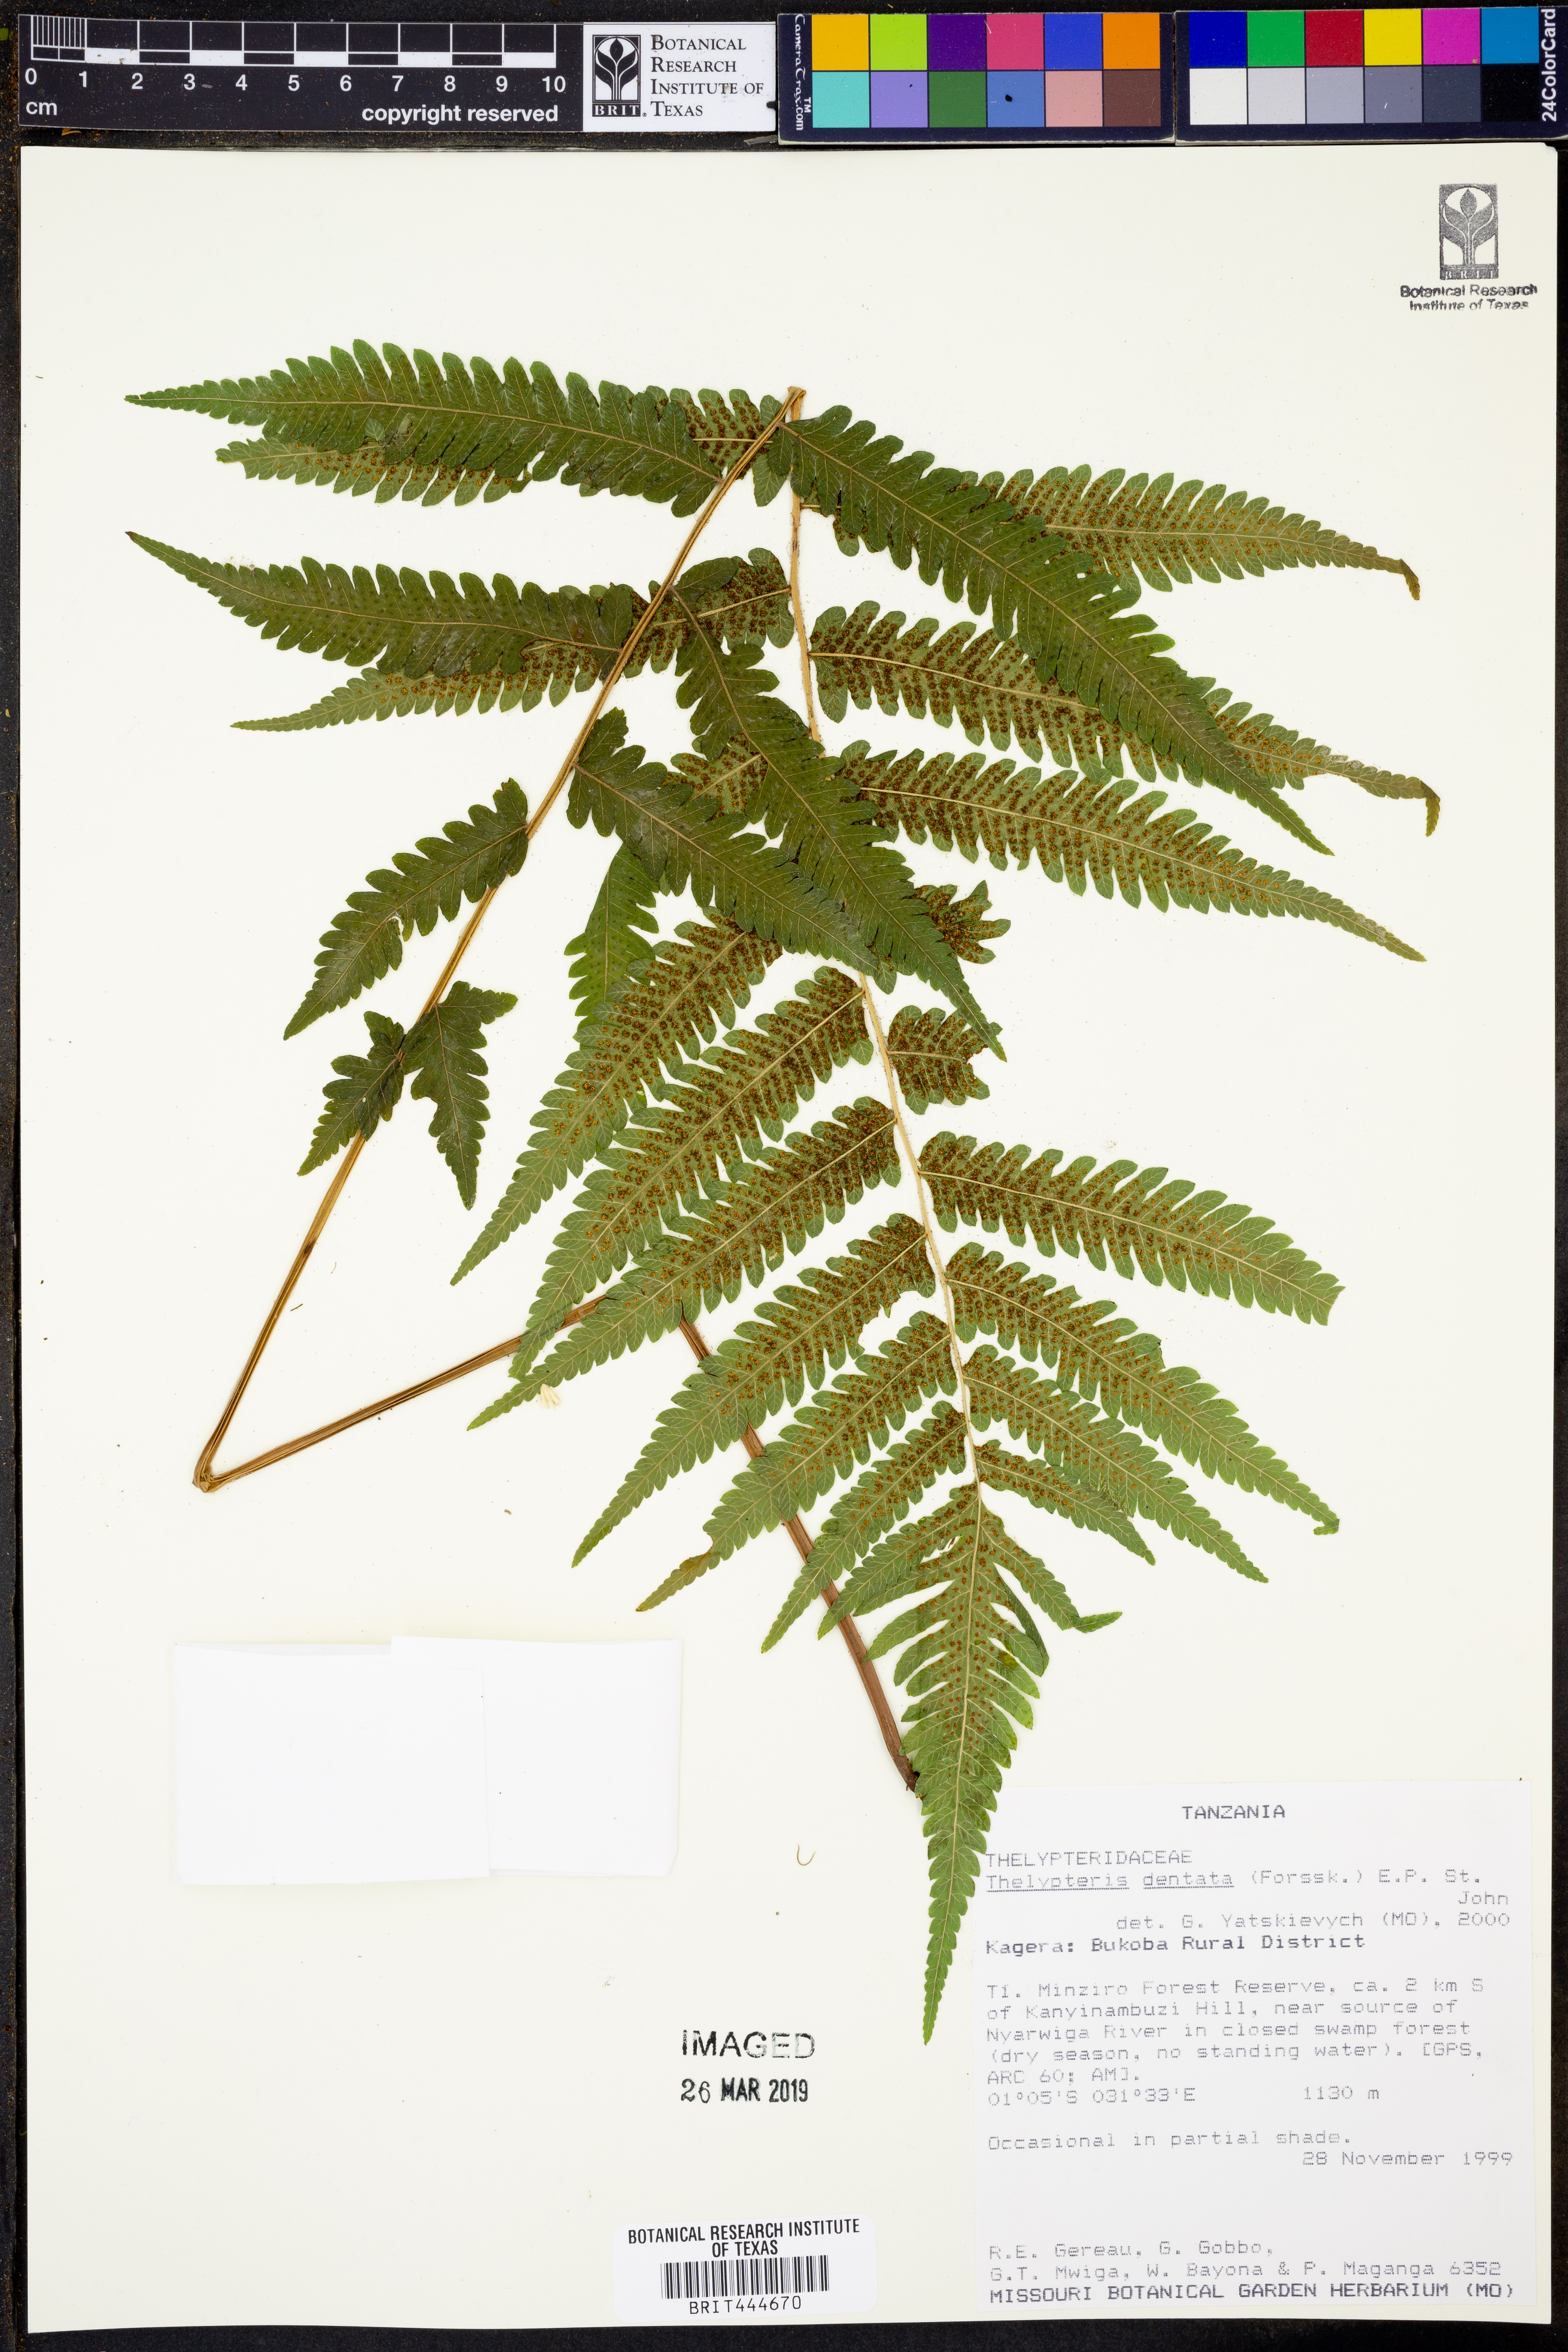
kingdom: Plantae
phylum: Tracheophyta
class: Polypodiopsida
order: Polypodiales
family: Thelypteridaceae
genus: Christella
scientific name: Christella dentata
